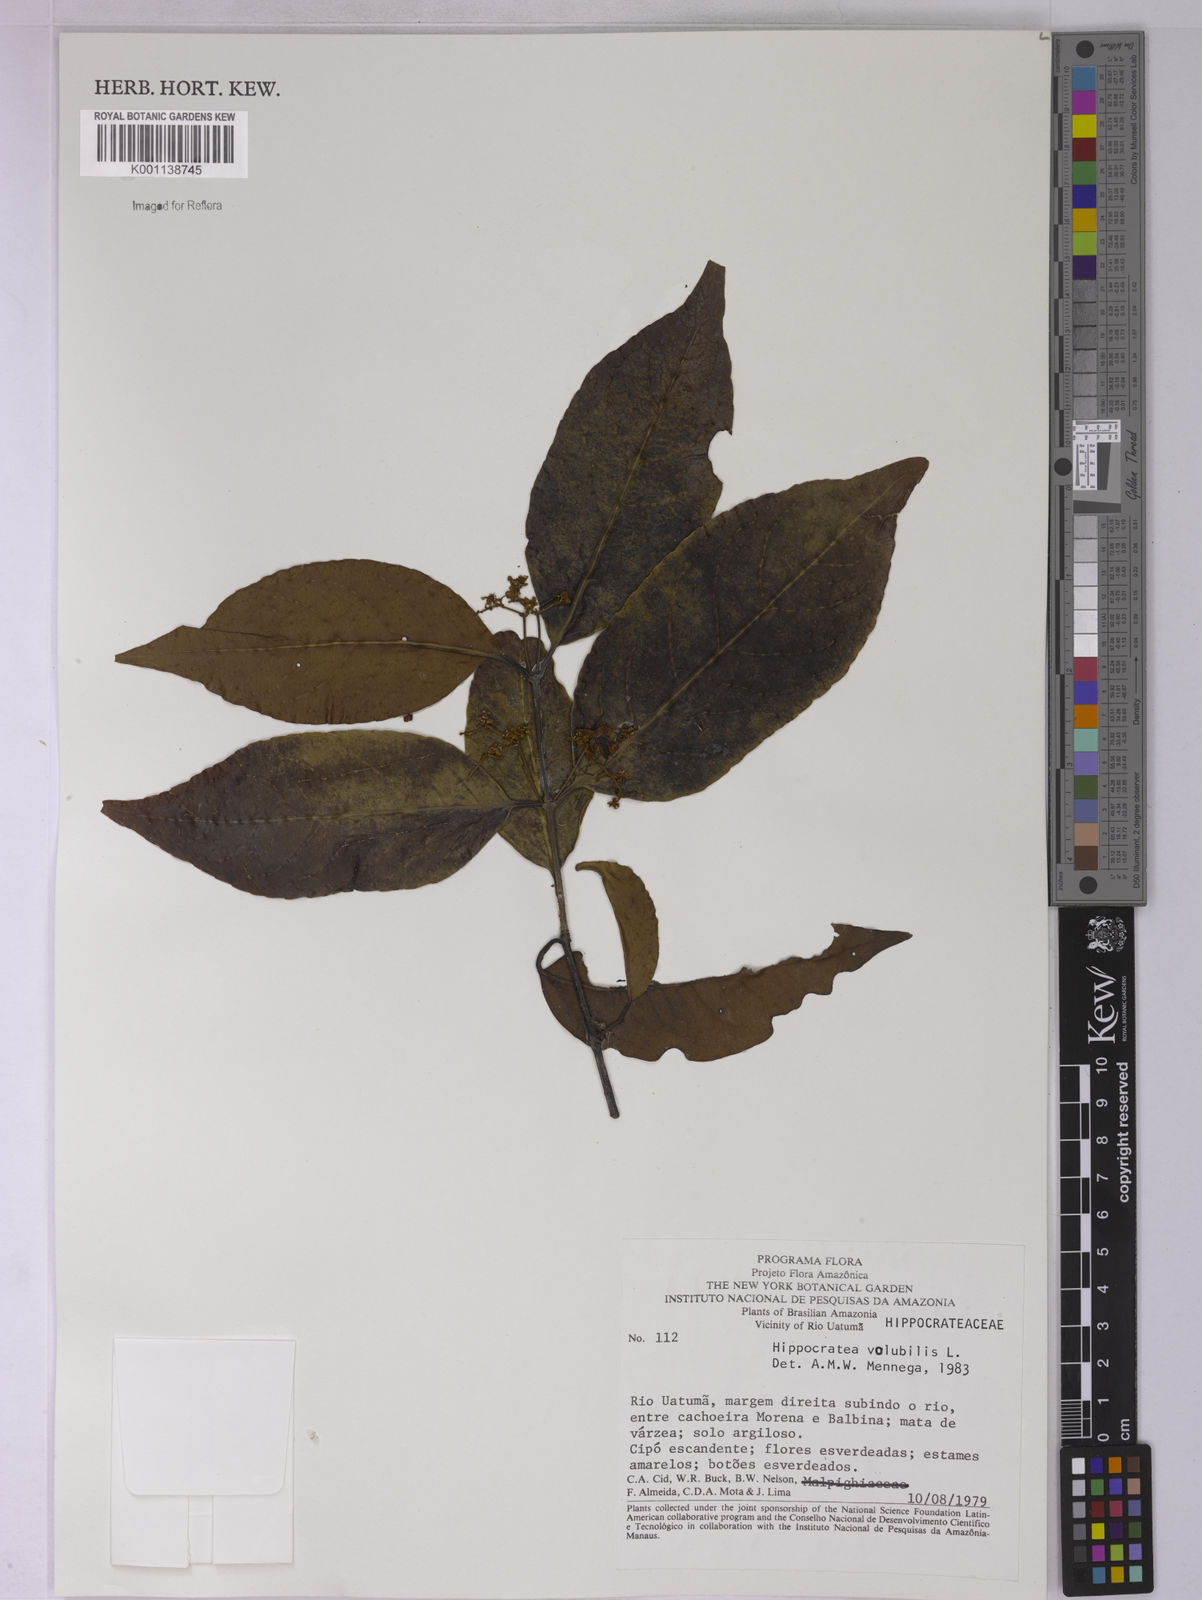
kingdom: Plantae
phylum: Tracheophyta
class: Magnoliopsida
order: Celastrales
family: Celastraceae
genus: Hippocratea
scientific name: Hippocratea volubilis
